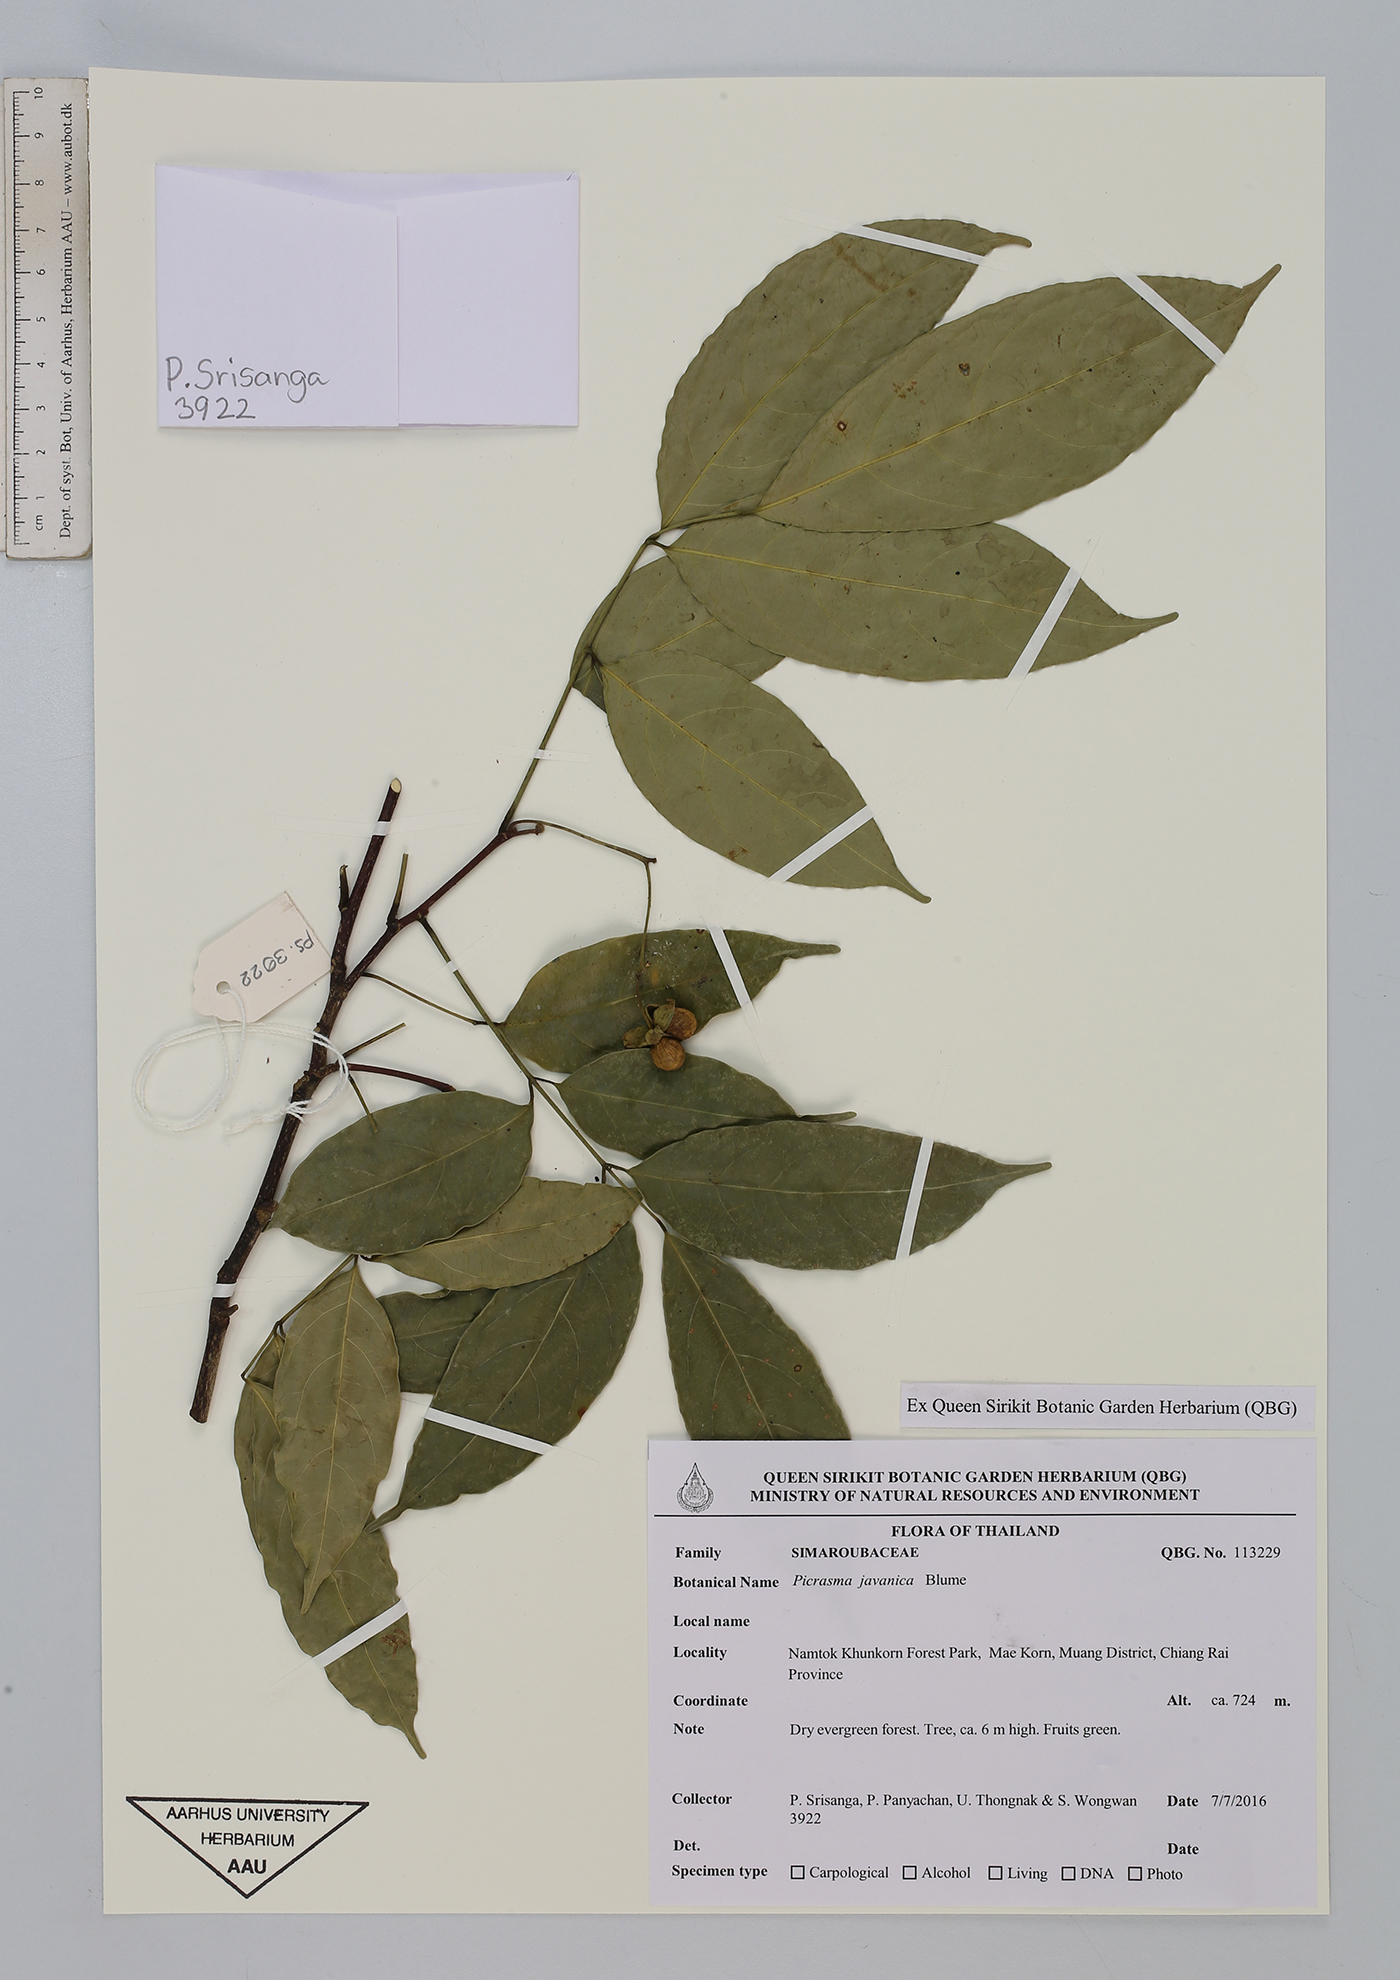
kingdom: Plantae
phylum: Tracheophyta
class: Magnoliopsida
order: Sapindales
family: Simaroubaceae
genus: Picrasma
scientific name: Picrasma javanica
